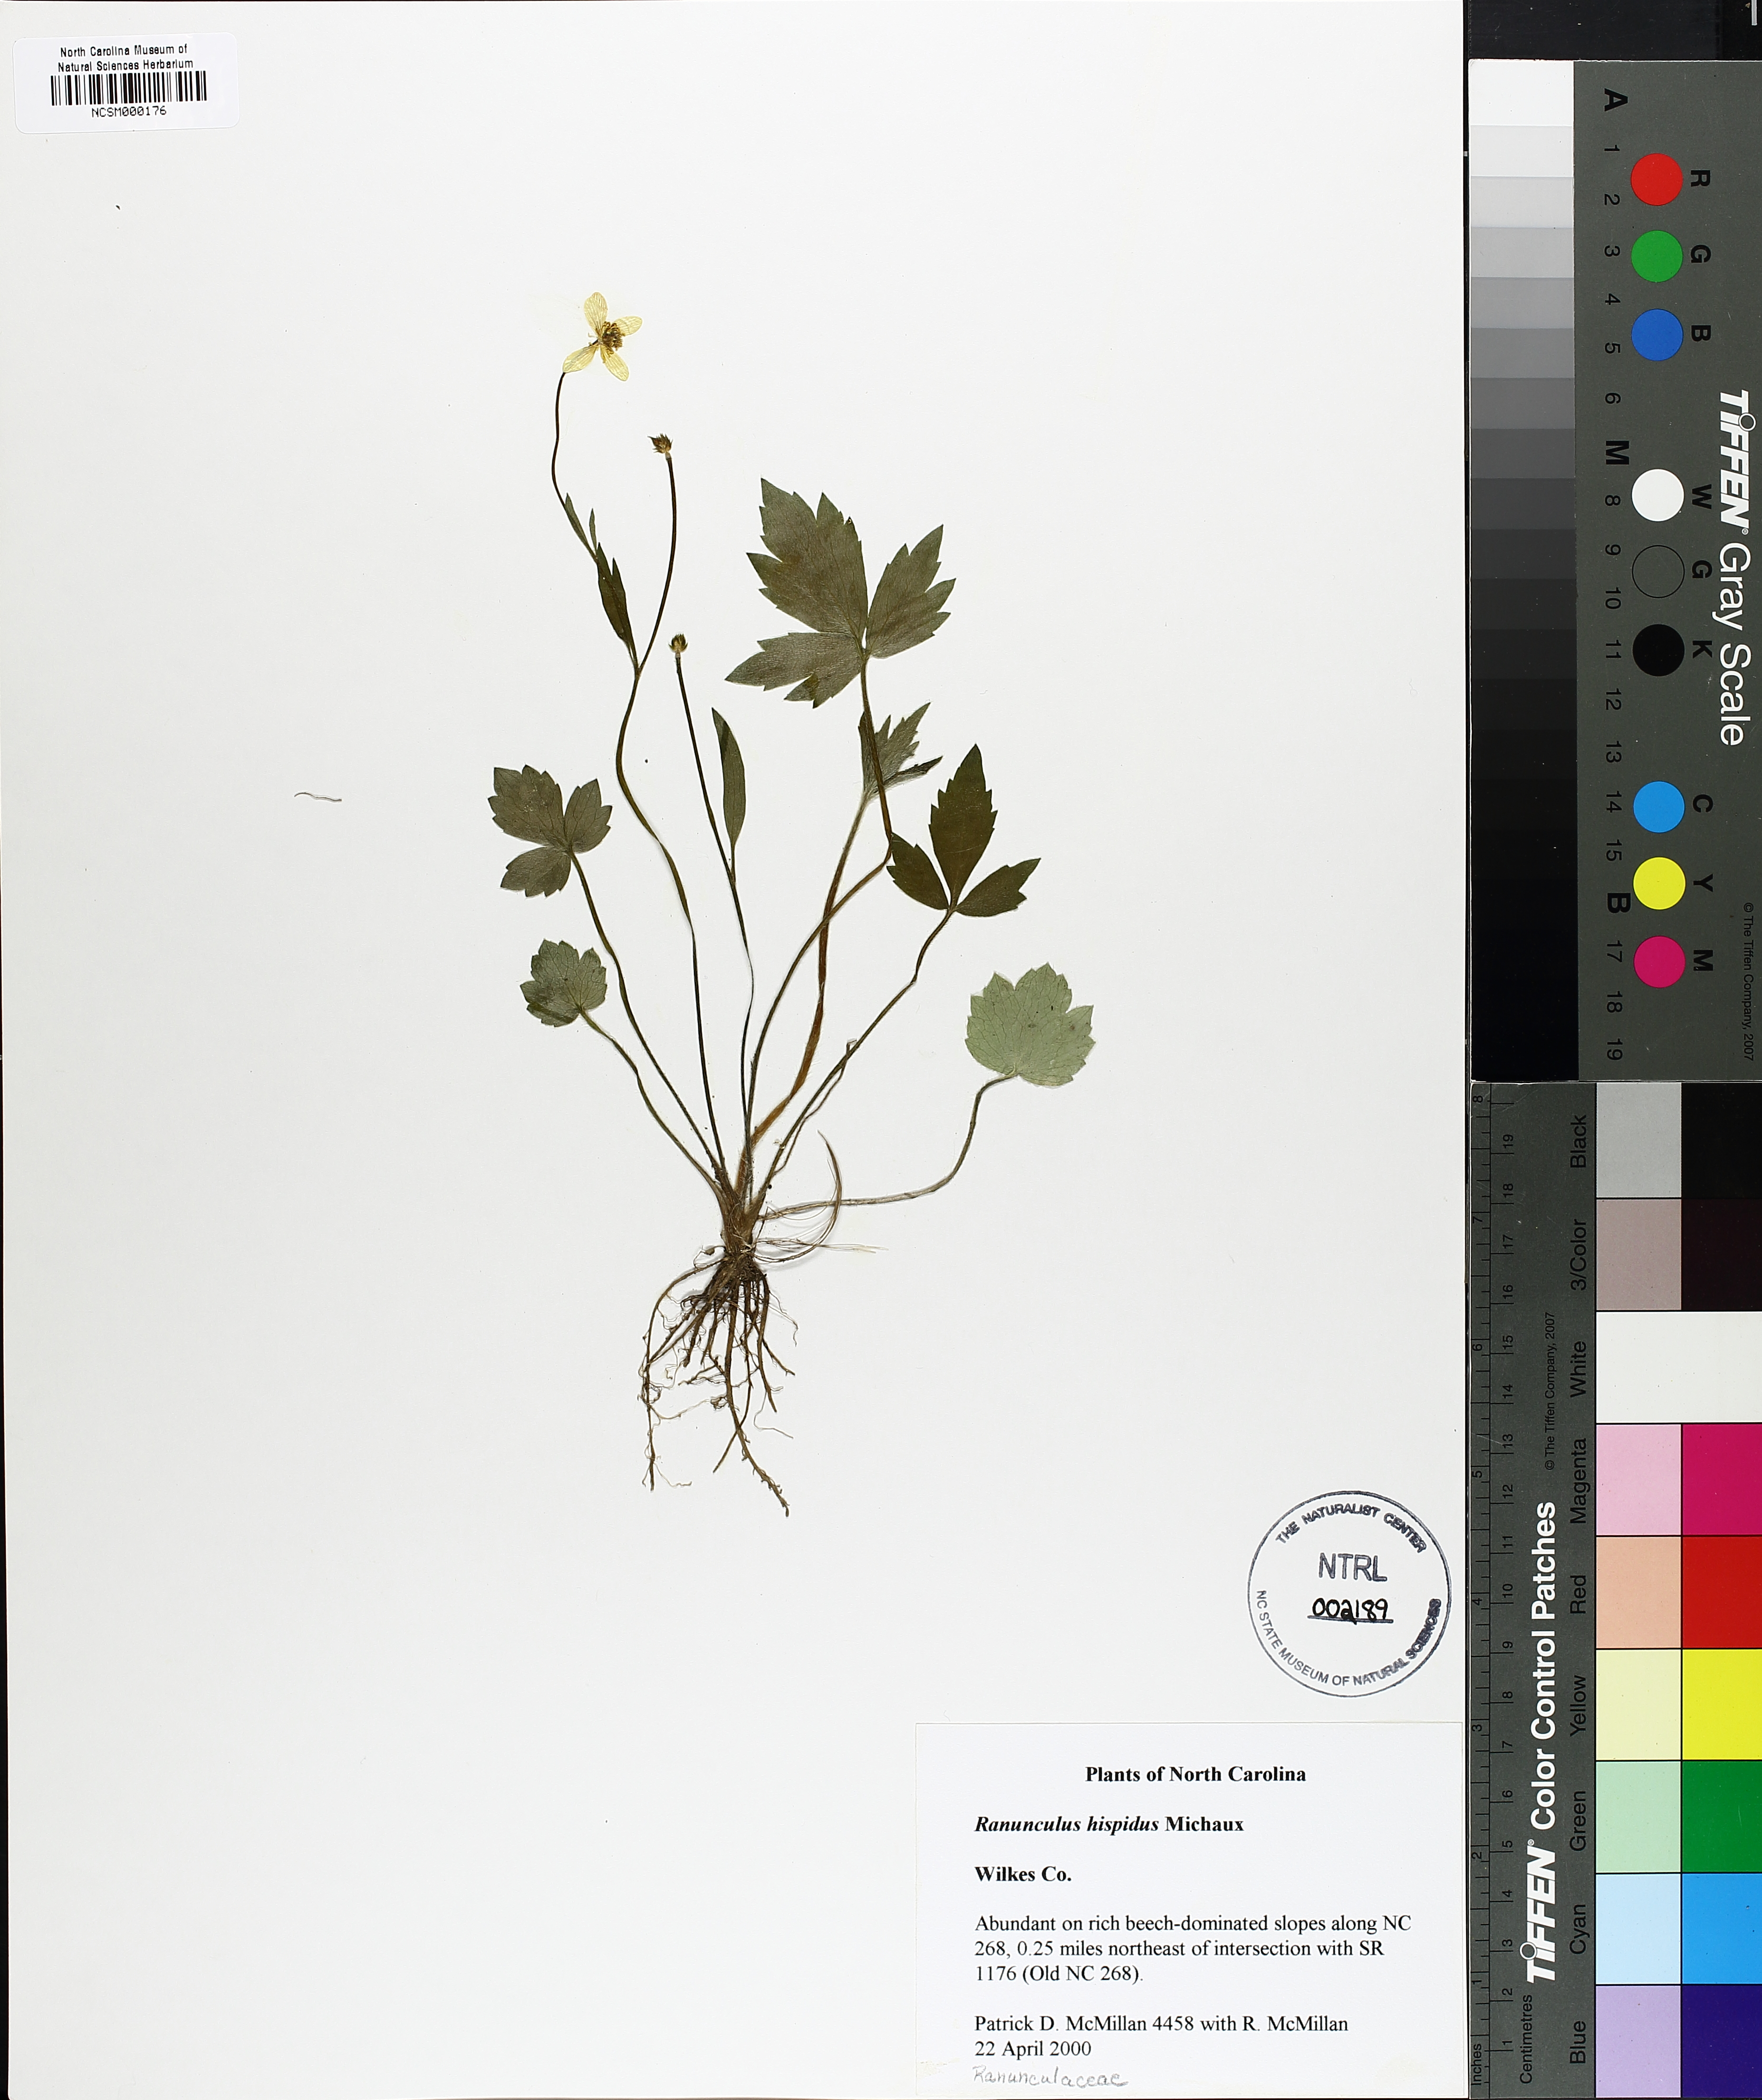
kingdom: Plantae
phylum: Tracheophyta
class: Magnoliopsida
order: Ranunculales
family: Ranunculaceae
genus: Ranunculus
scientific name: Ranunculus hispidus
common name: Bristly buttercup
